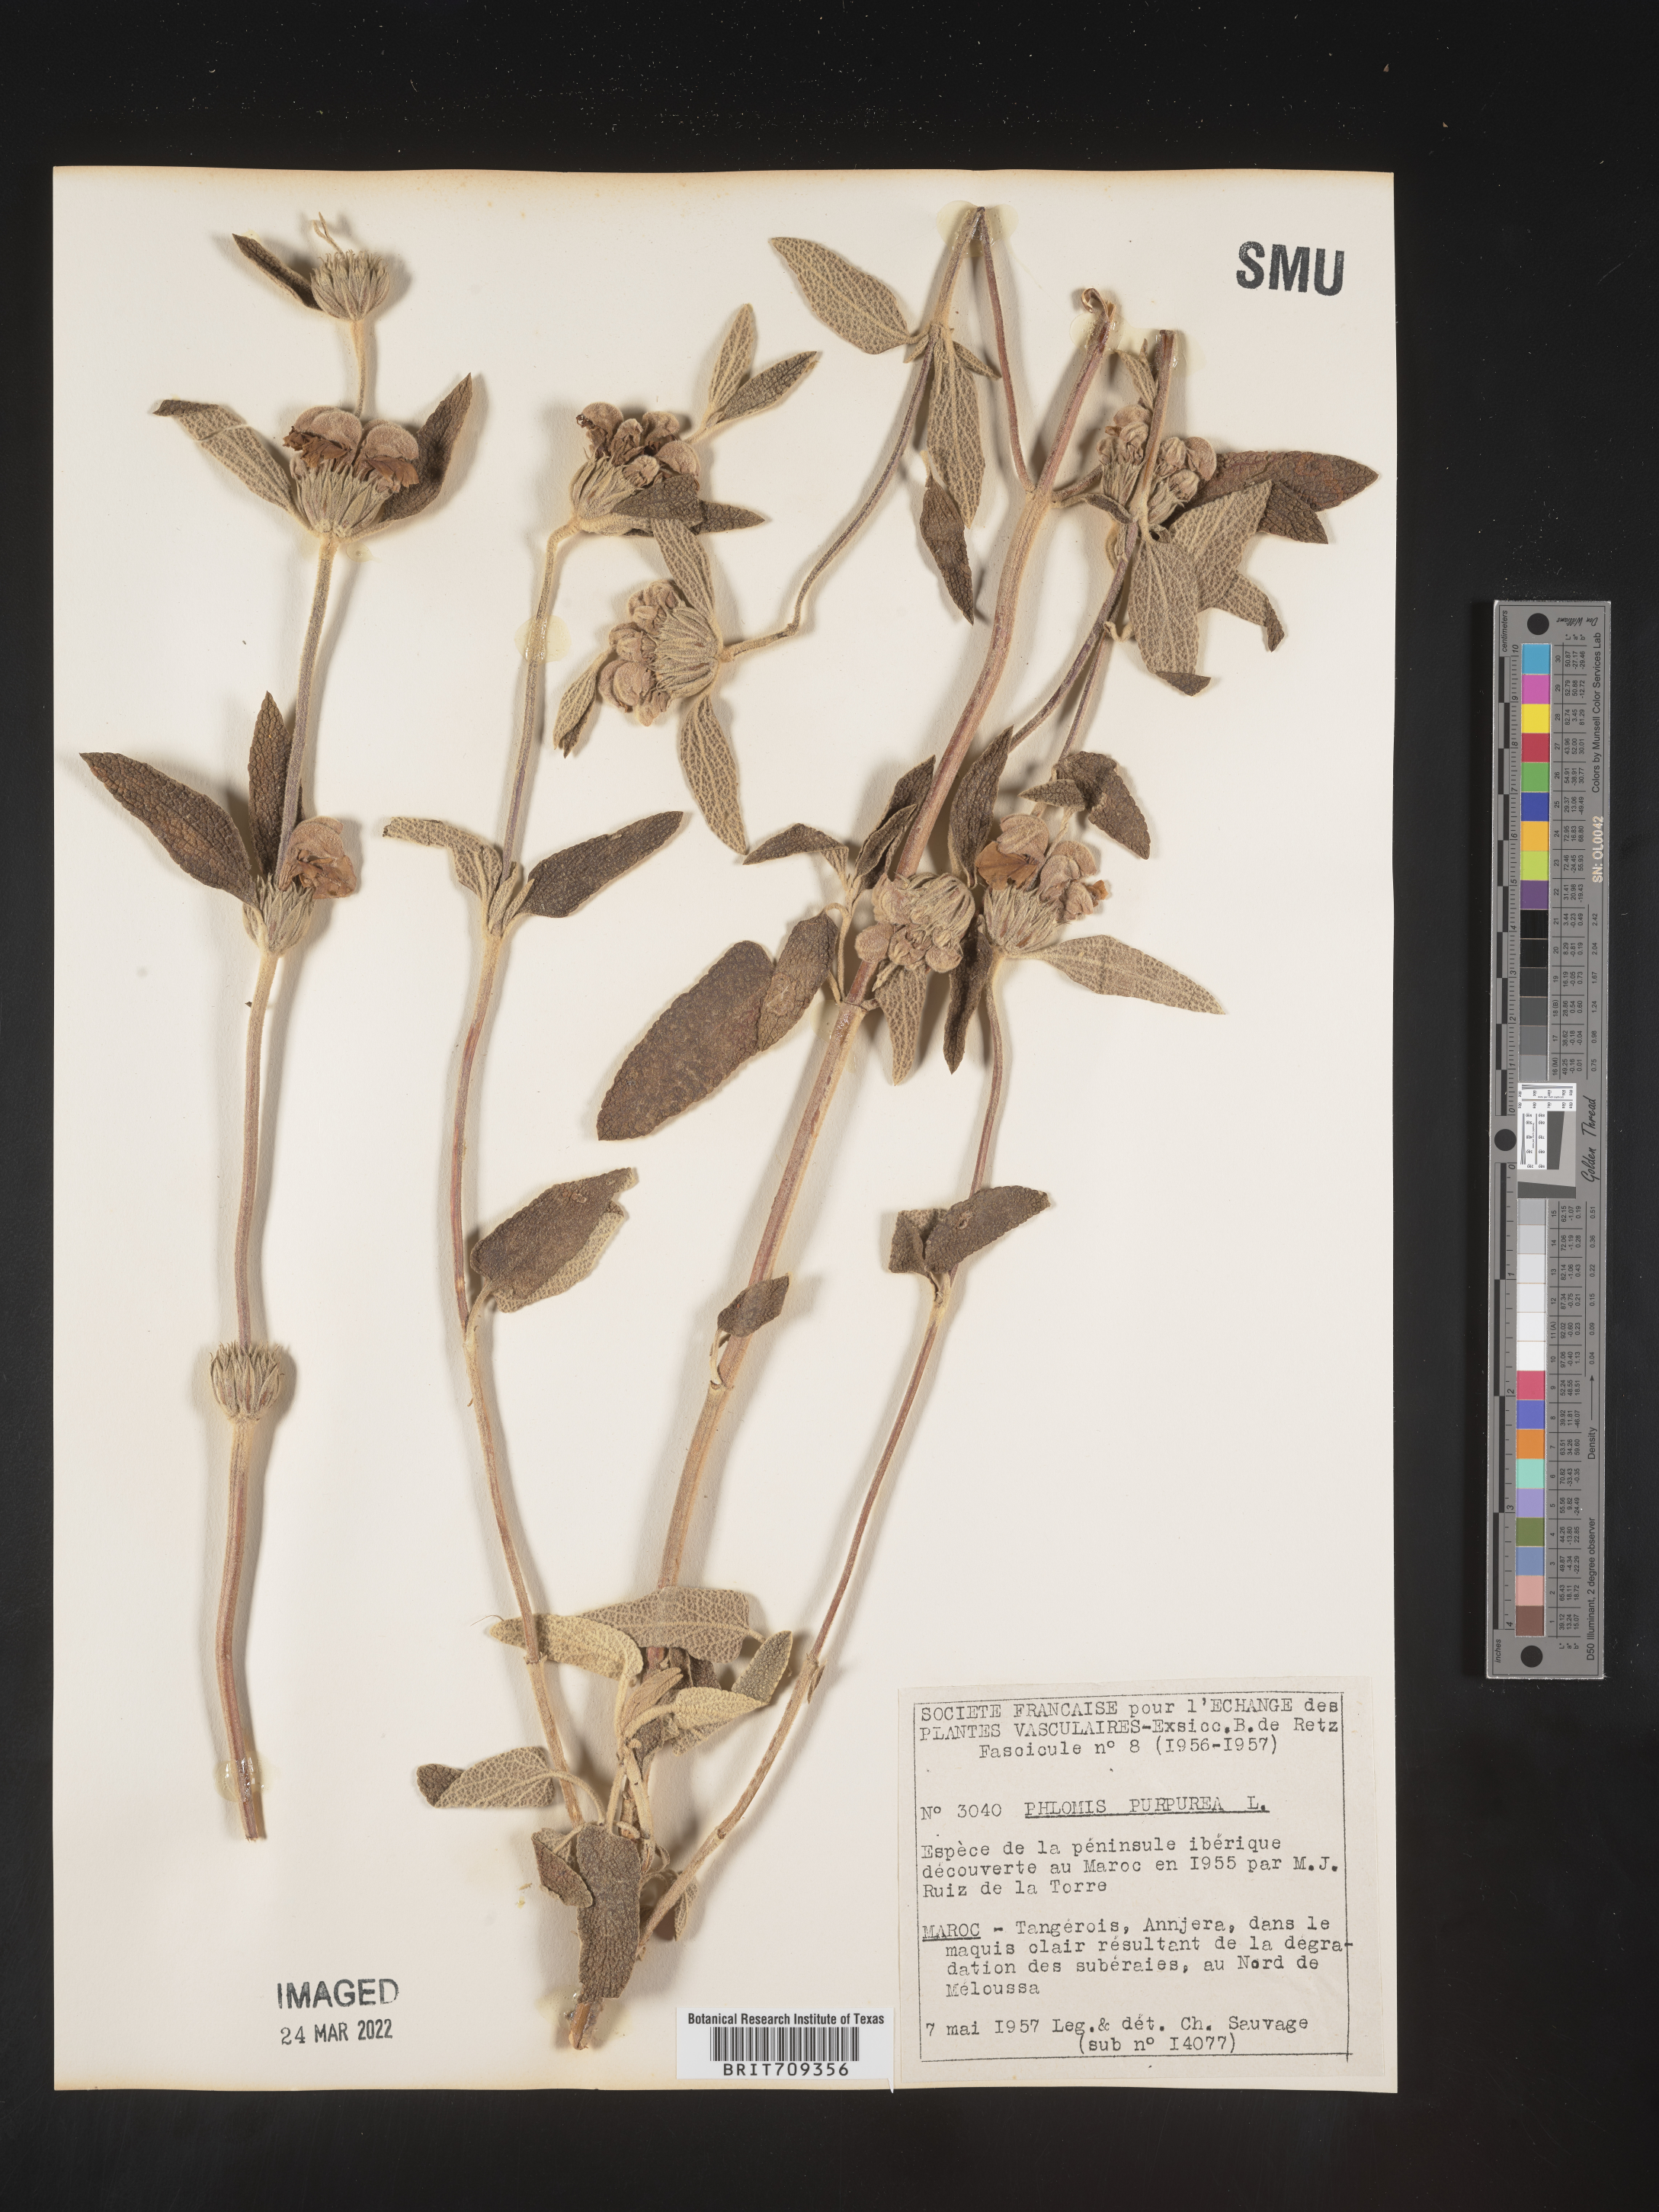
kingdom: Plantae
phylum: Tracheophyta
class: Magnoliopsida
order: Lamiales
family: Lamiaceae
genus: Phlomis
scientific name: Phlomis
